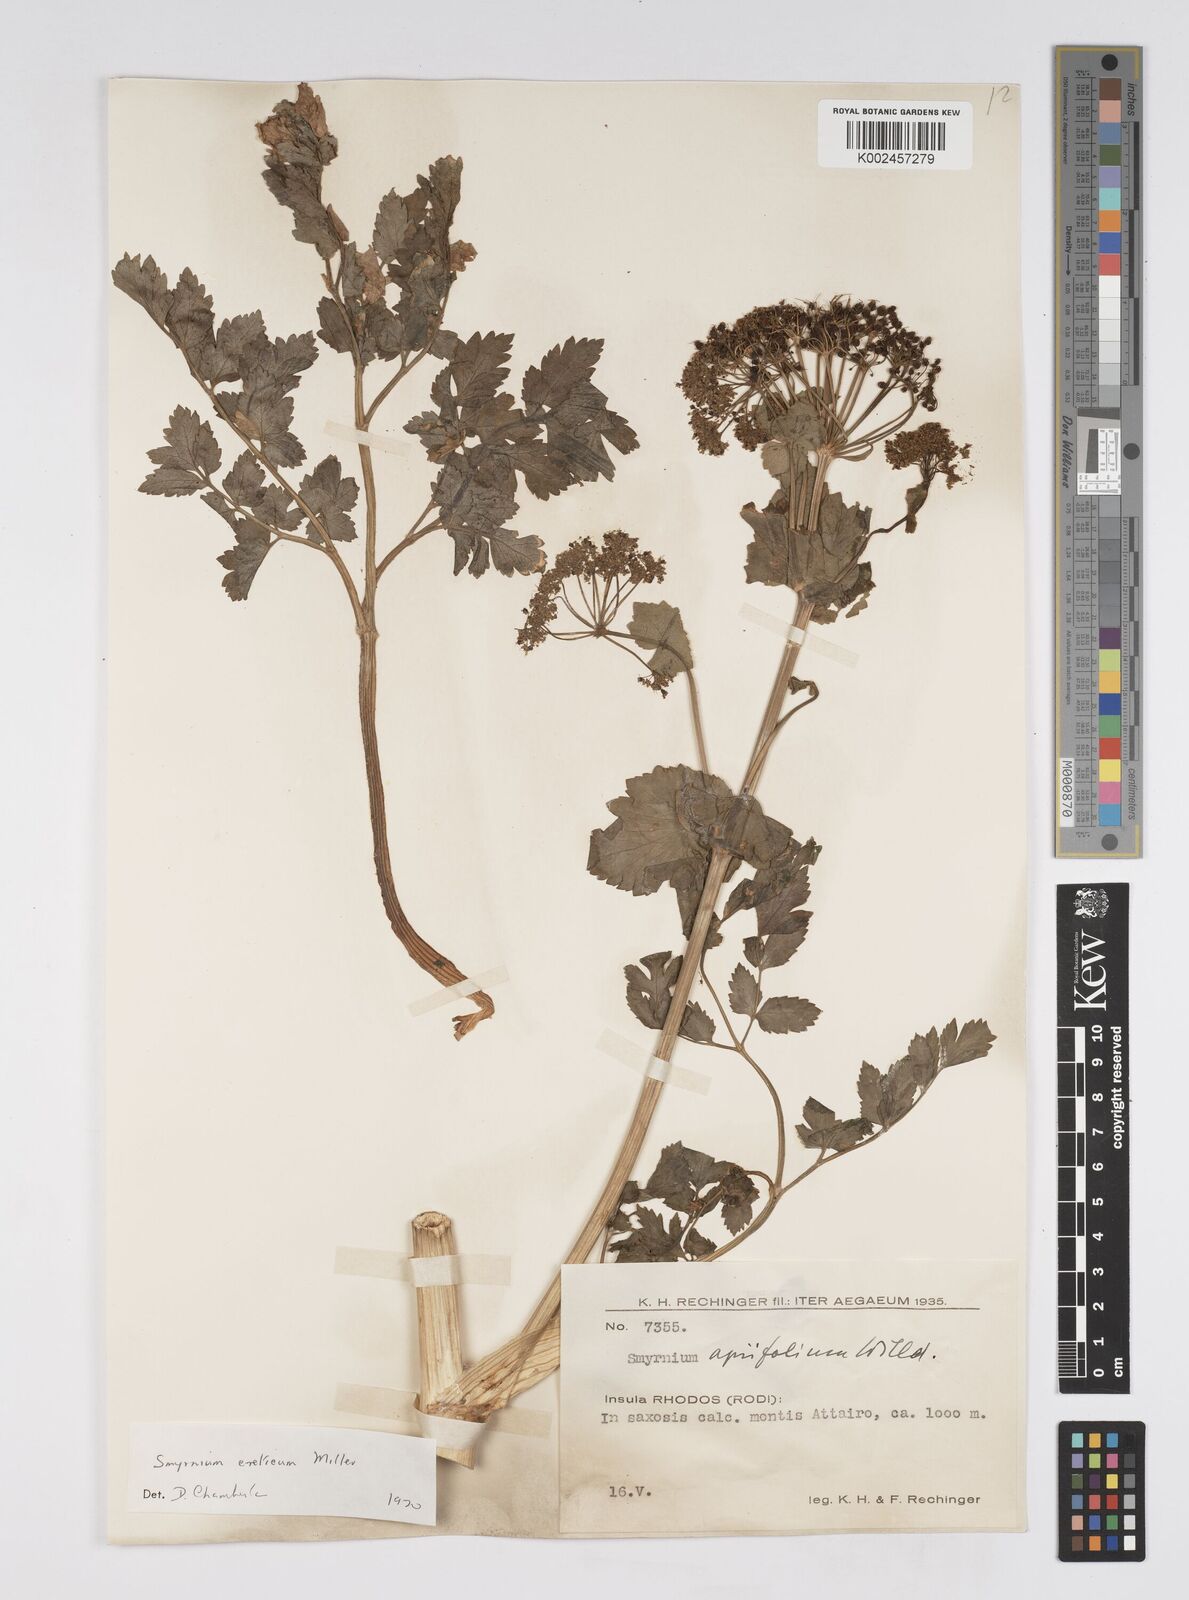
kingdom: Plantae
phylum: Tracheophyta
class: Magnoliopsida
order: Apiales
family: Apiaceae
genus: Smyrnium
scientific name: Smyrnium creticum
